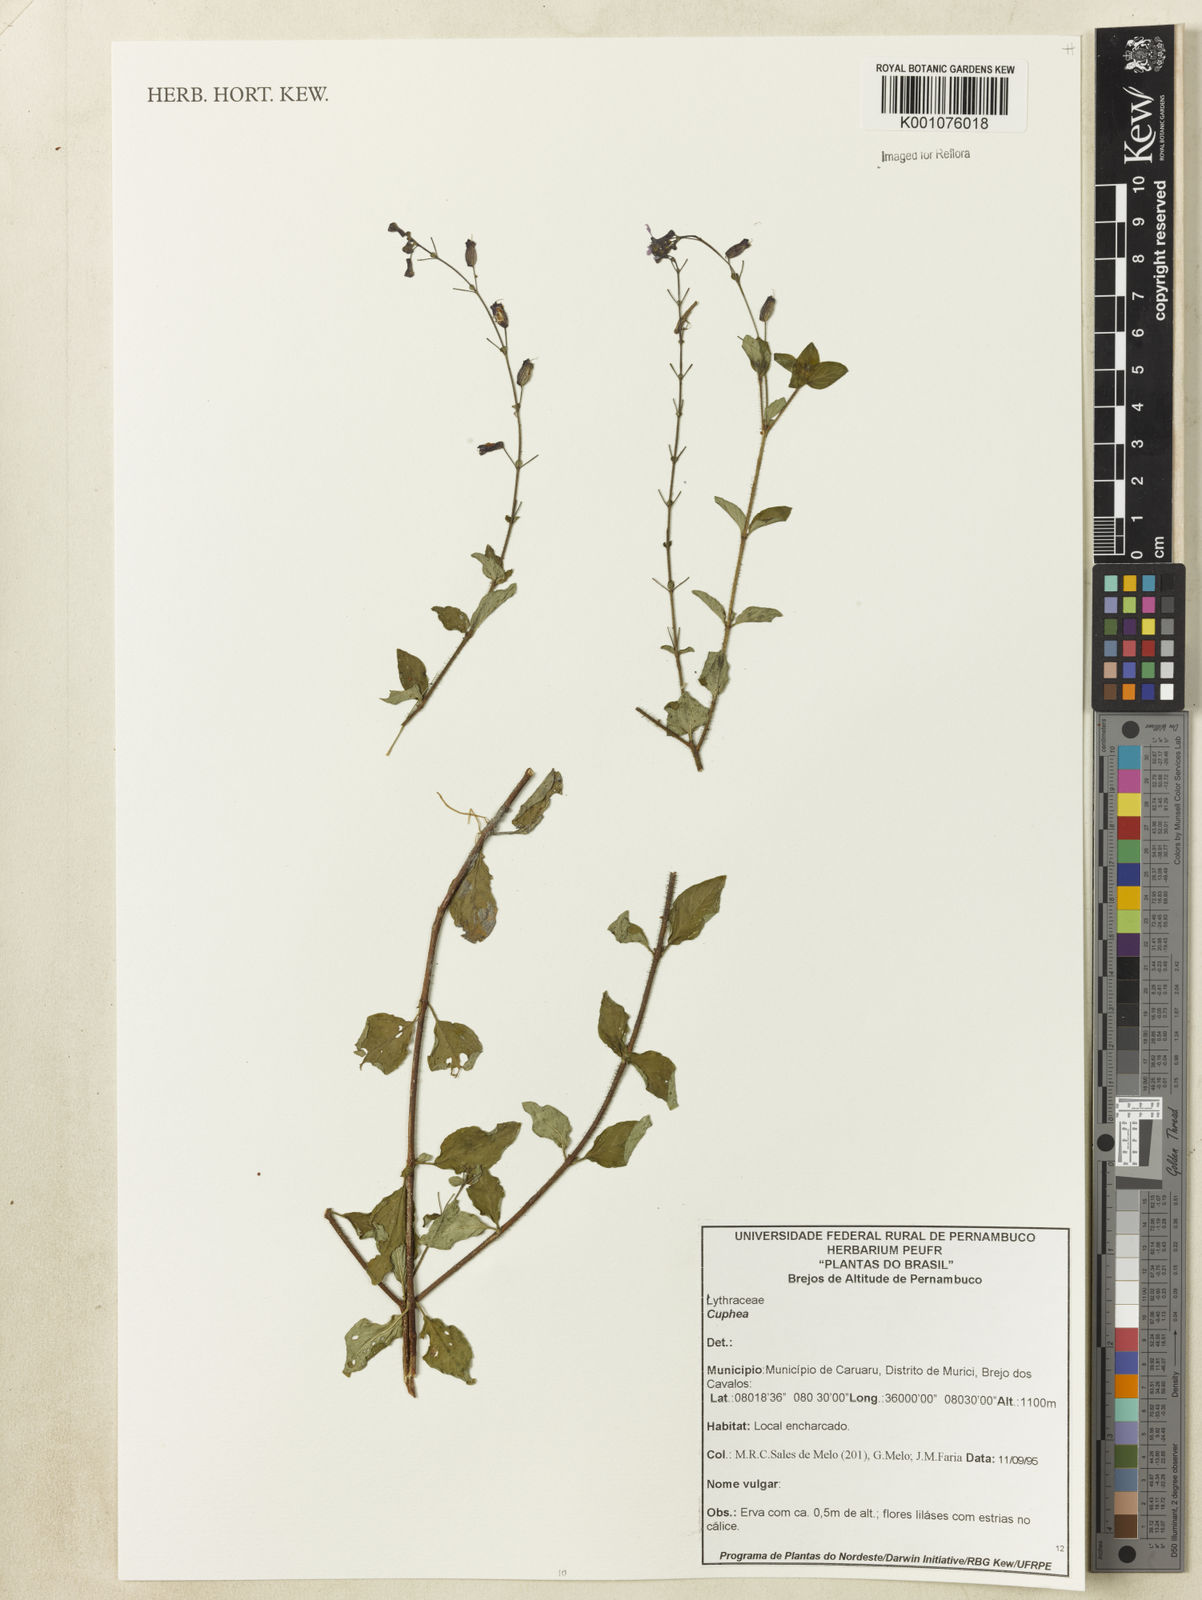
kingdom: Plantae
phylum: Tracheophyta
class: Magnoliopsida
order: Myrtales
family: Lythraceae
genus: Cuphea
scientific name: Cuphea
